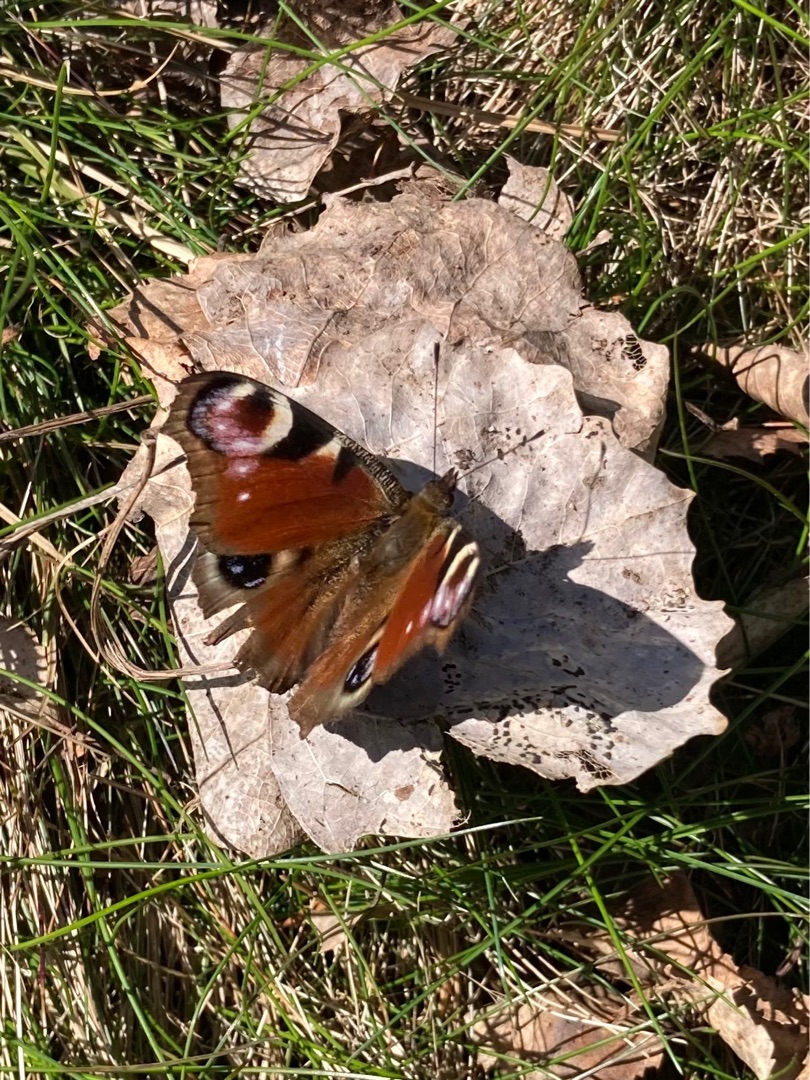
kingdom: Animalia
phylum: Arthropoda
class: Insecta
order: Lepidoptera
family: Nymphalidae
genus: Aglais
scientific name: Aglais io
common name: Dagpåfugleøje
